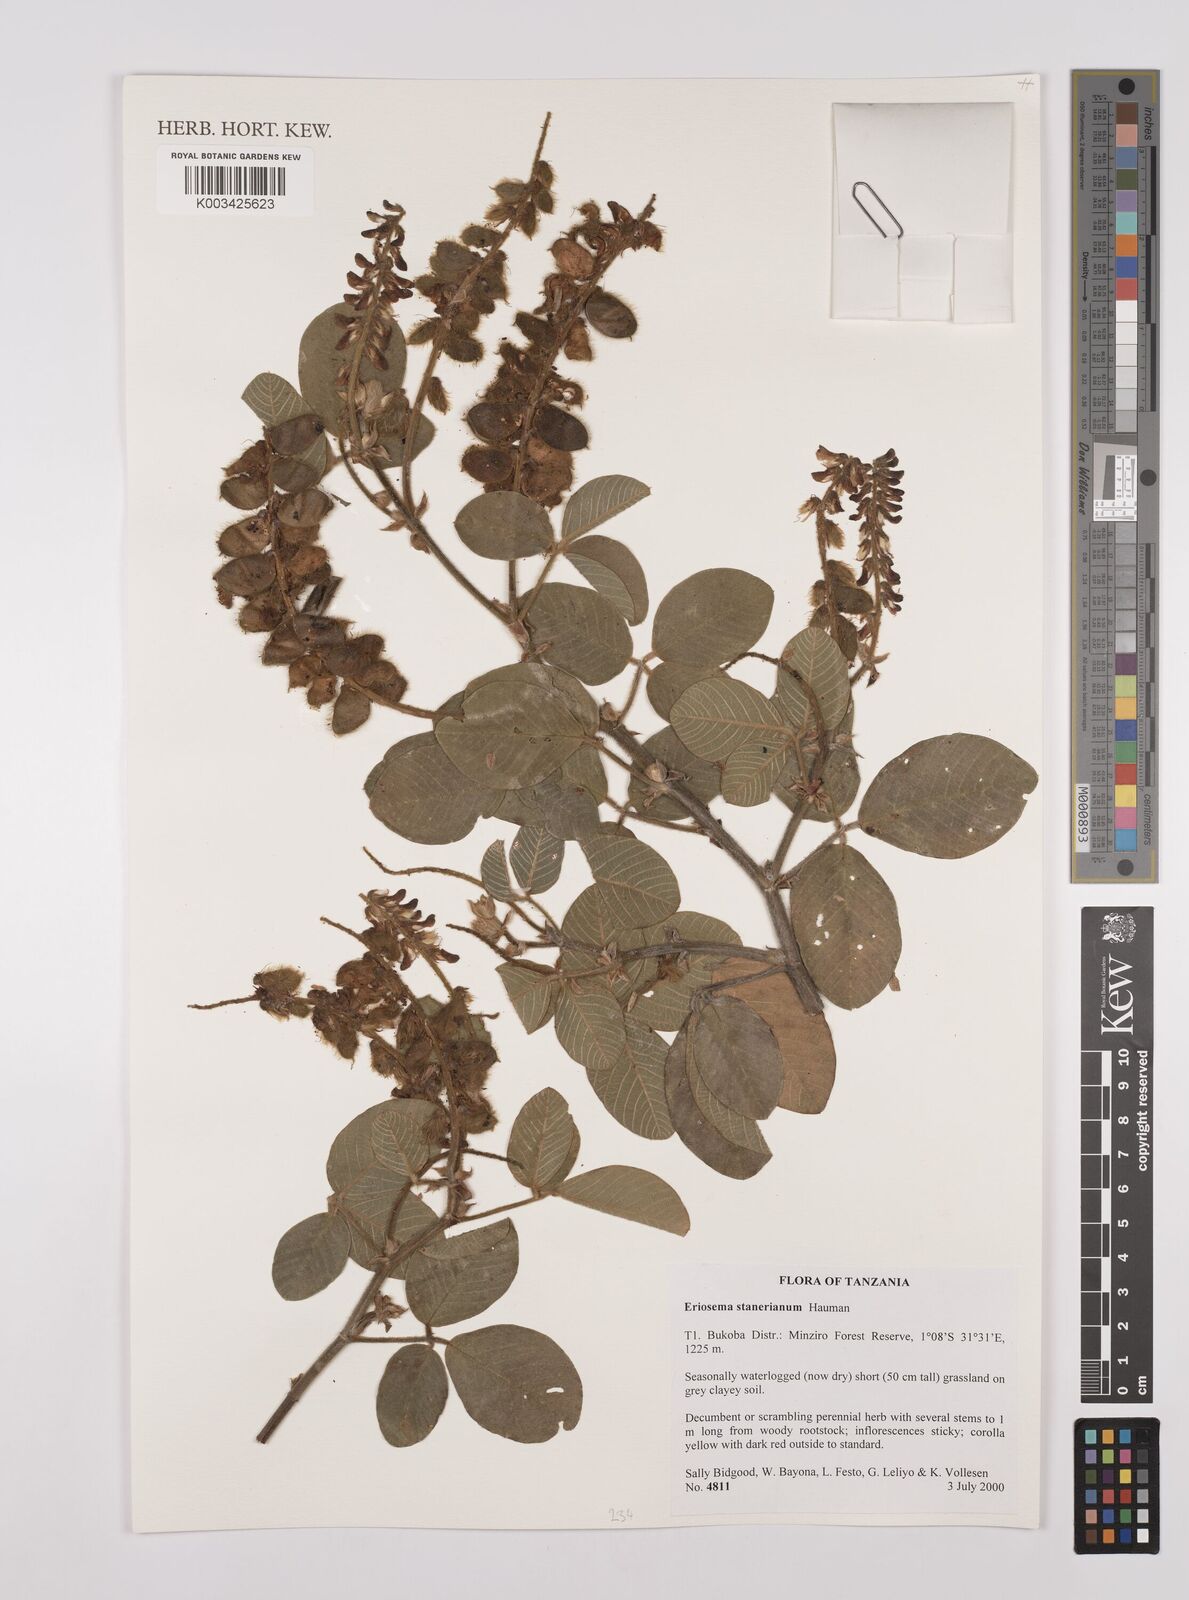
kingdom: Plantae
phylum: Tracheophyta
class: Magnoliopsida
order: Fabales
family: Fabaceae
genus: Eriosema
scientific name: Eriosema angolense
